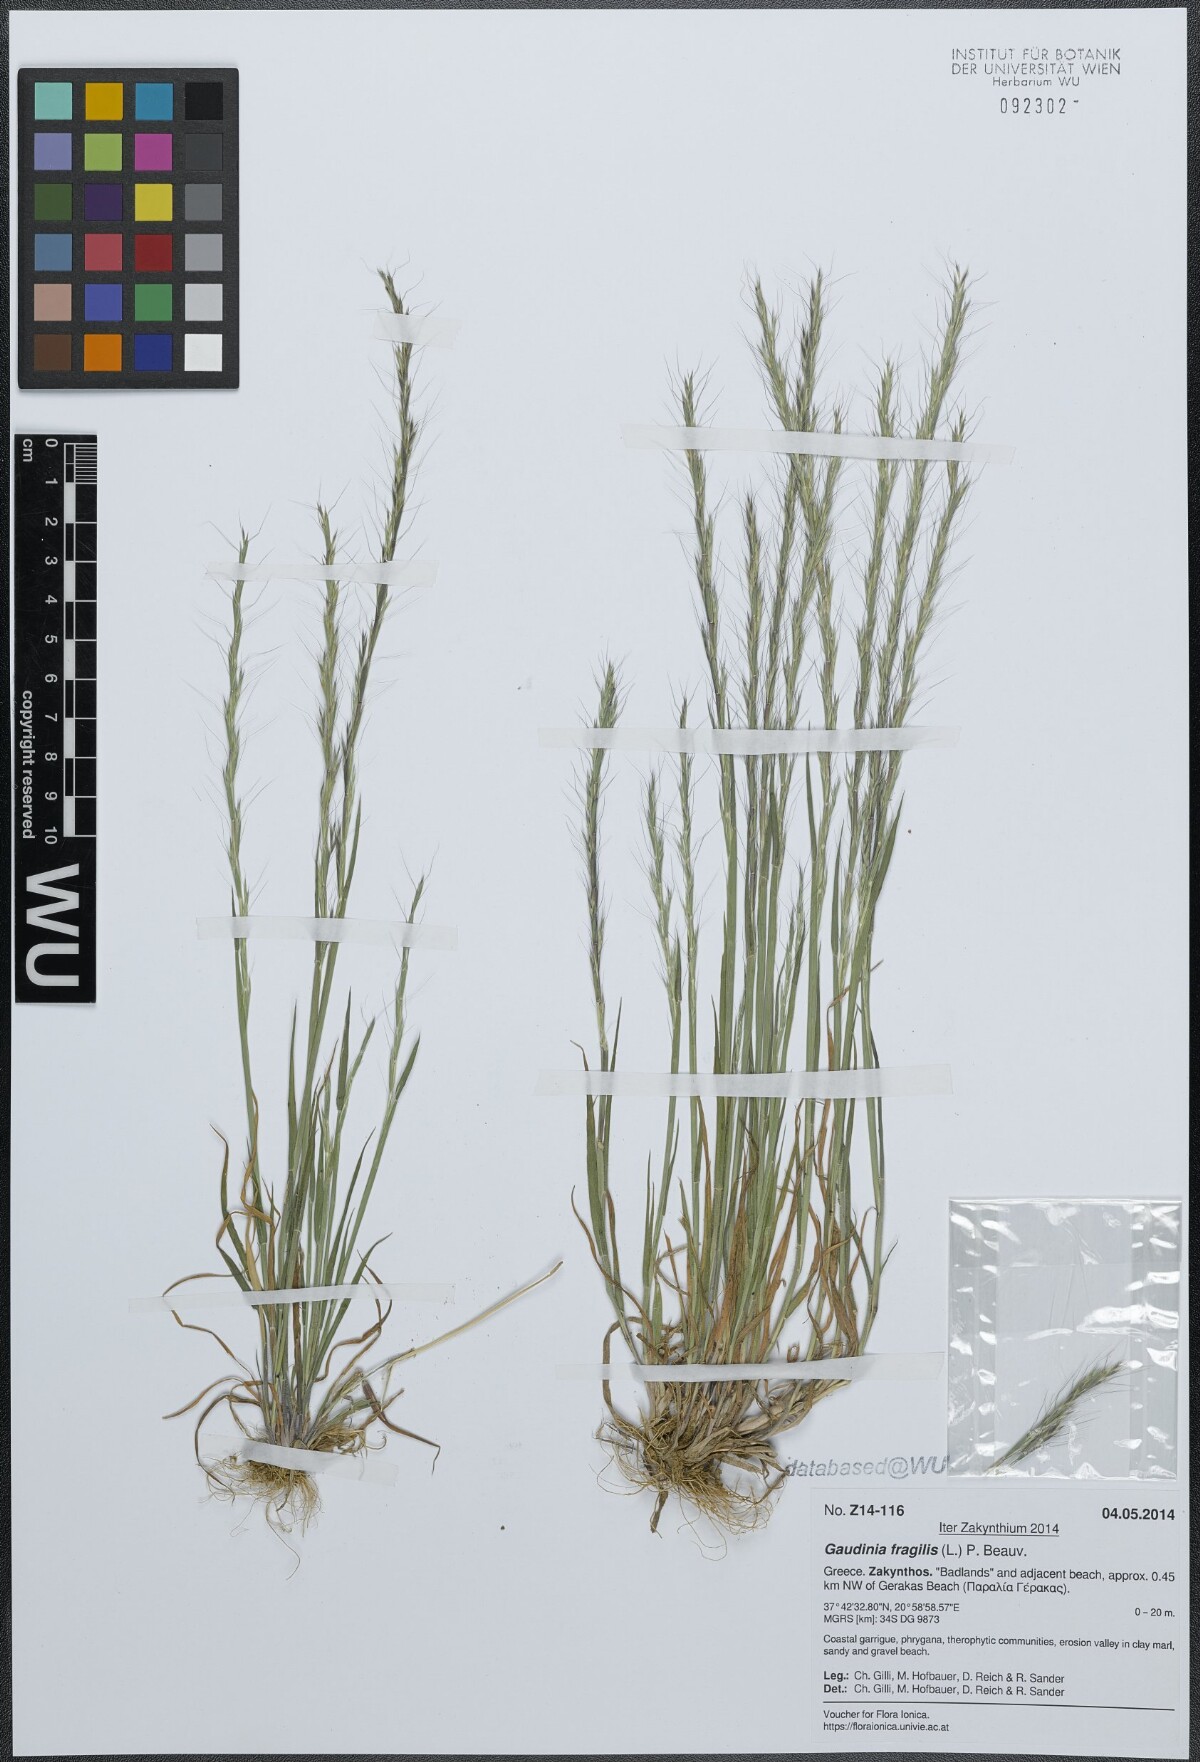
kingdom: Plantae
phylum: Tracheophyta
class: Liliopsida
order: Poales
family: Poaceae
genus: Gaudinia
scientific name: Gaudinia fragilis
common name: French oat-grass
